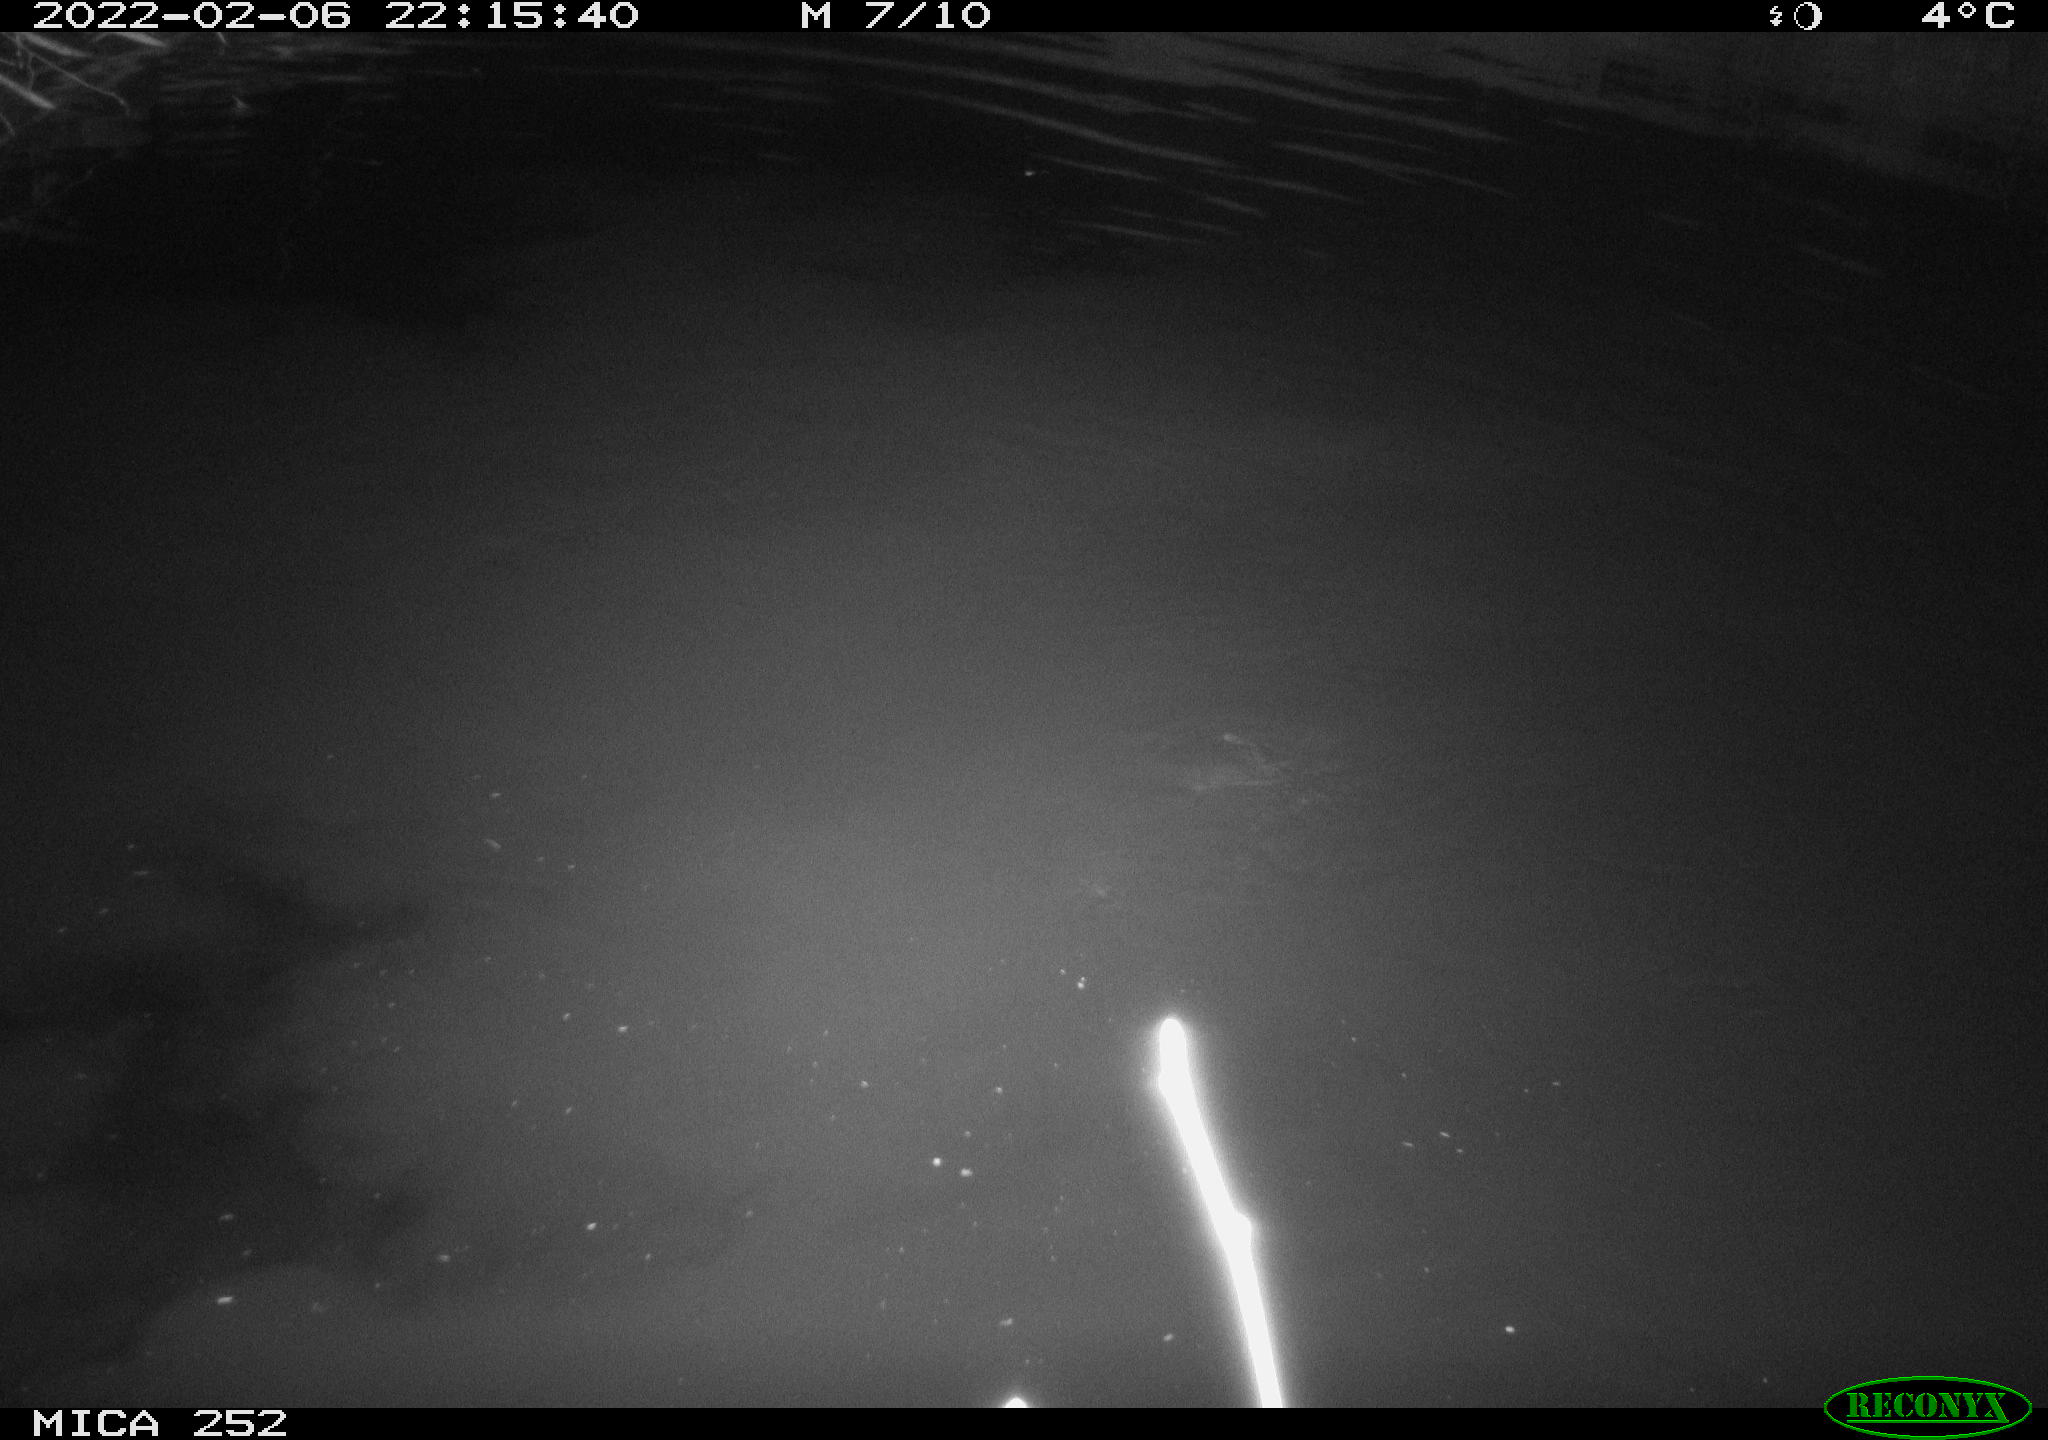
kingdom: Animalia
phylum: Chordata
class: Mammalia
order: Rodentia
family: Castoridae
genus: Castor
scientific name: Castor fiber
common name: Eurasian beaver
